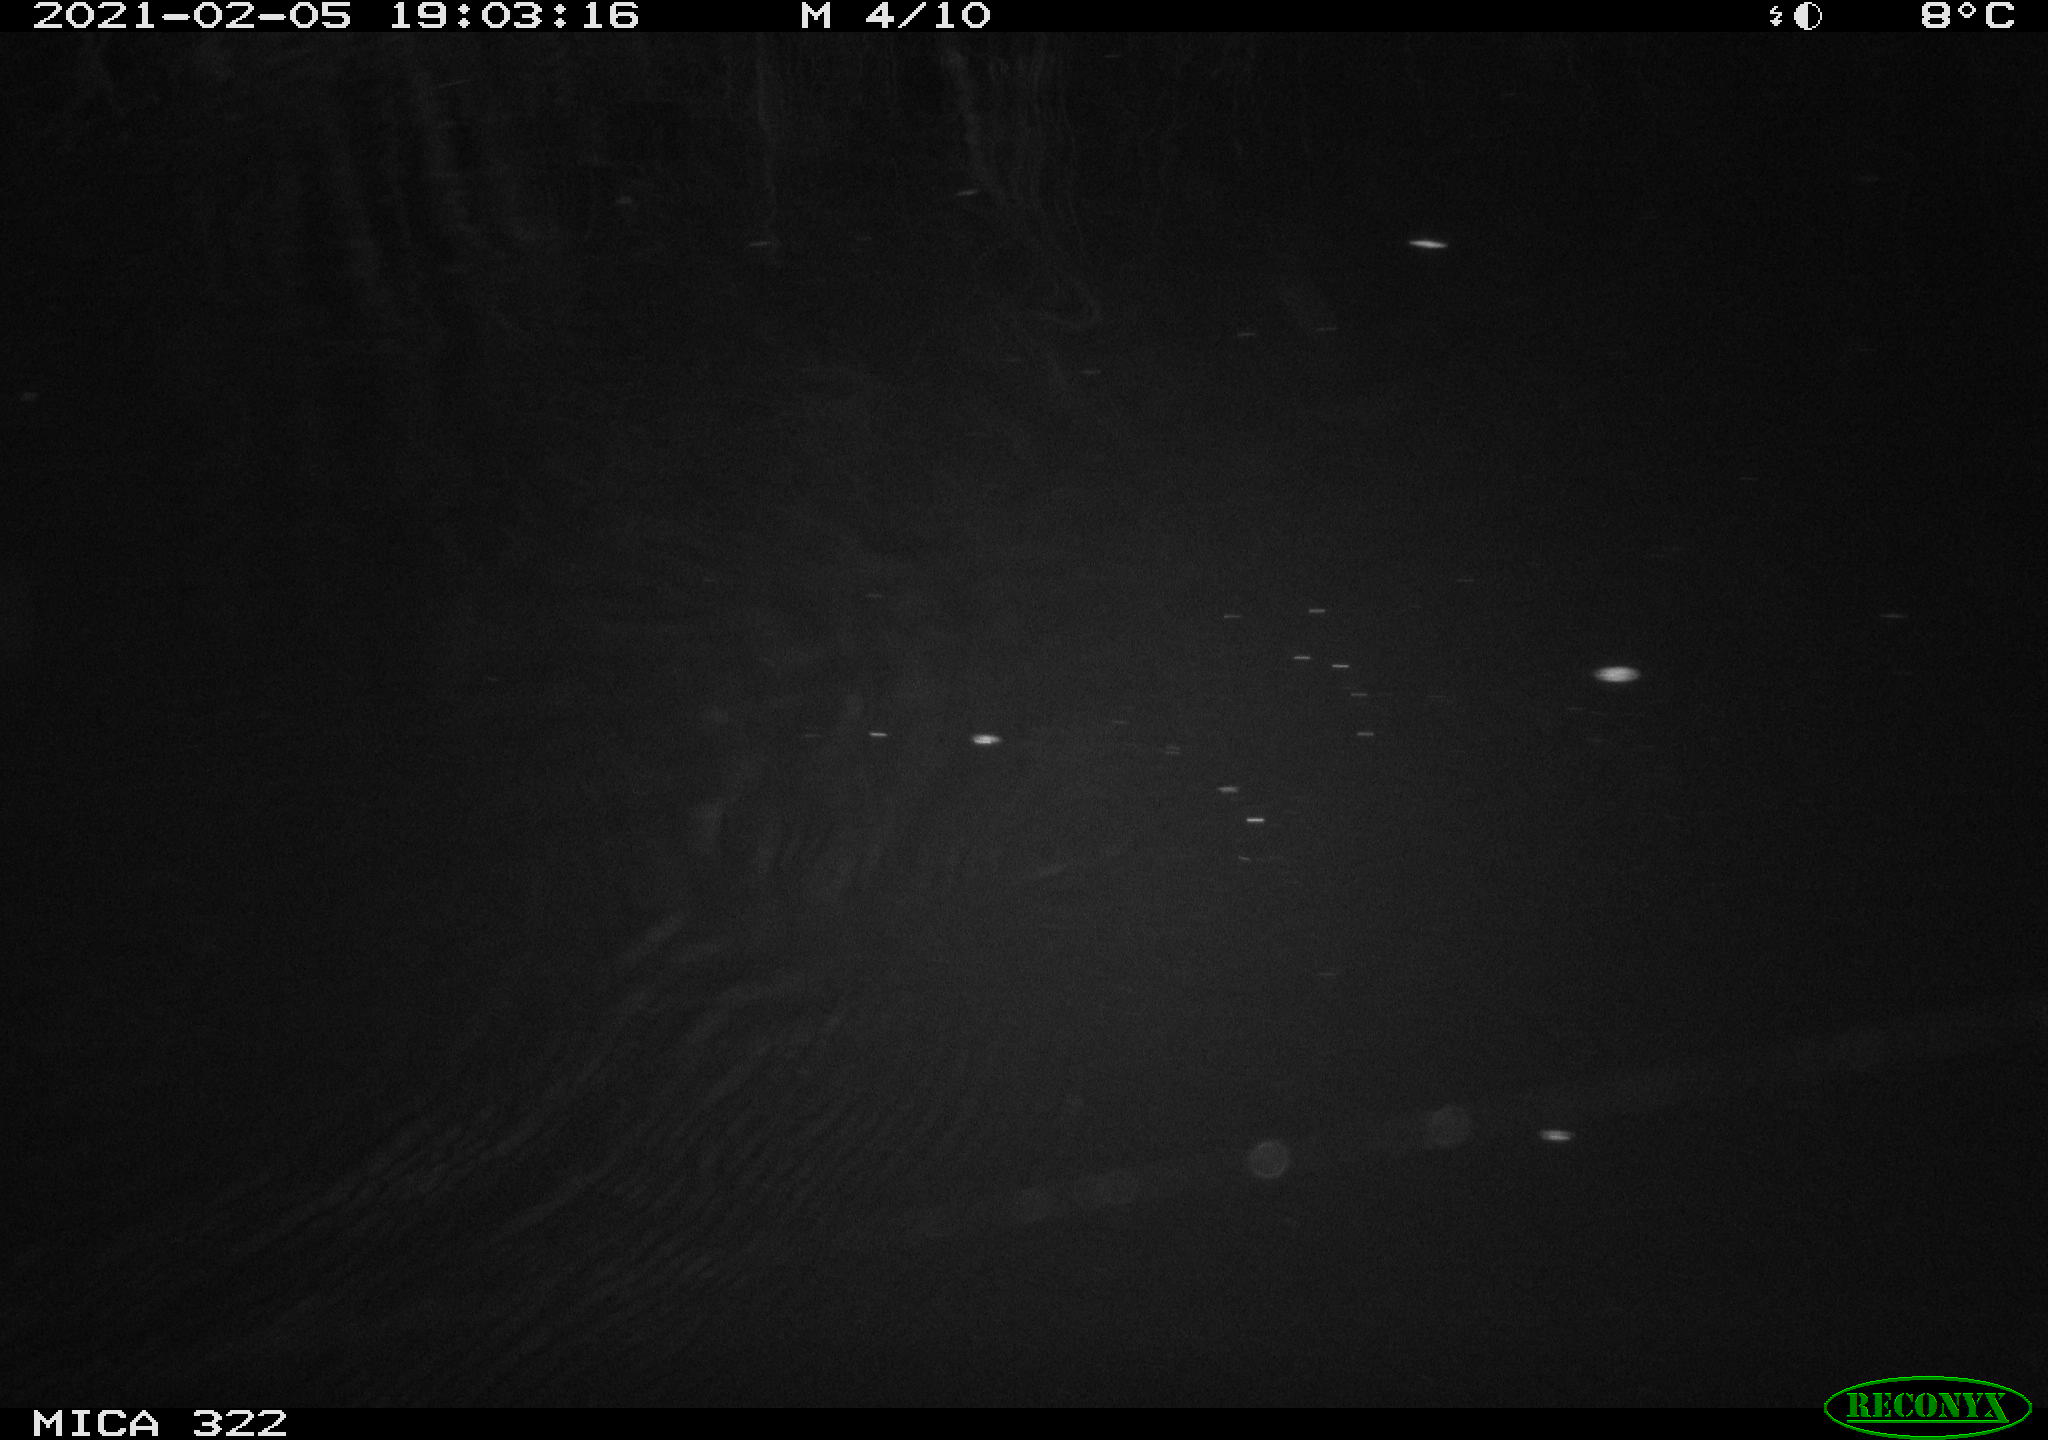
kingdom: Animalia
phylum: Chordata
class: Mammalia
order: Rodentia
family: Muridae
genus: Rattus
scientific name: Rattus norvegicus
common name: Brown rat
